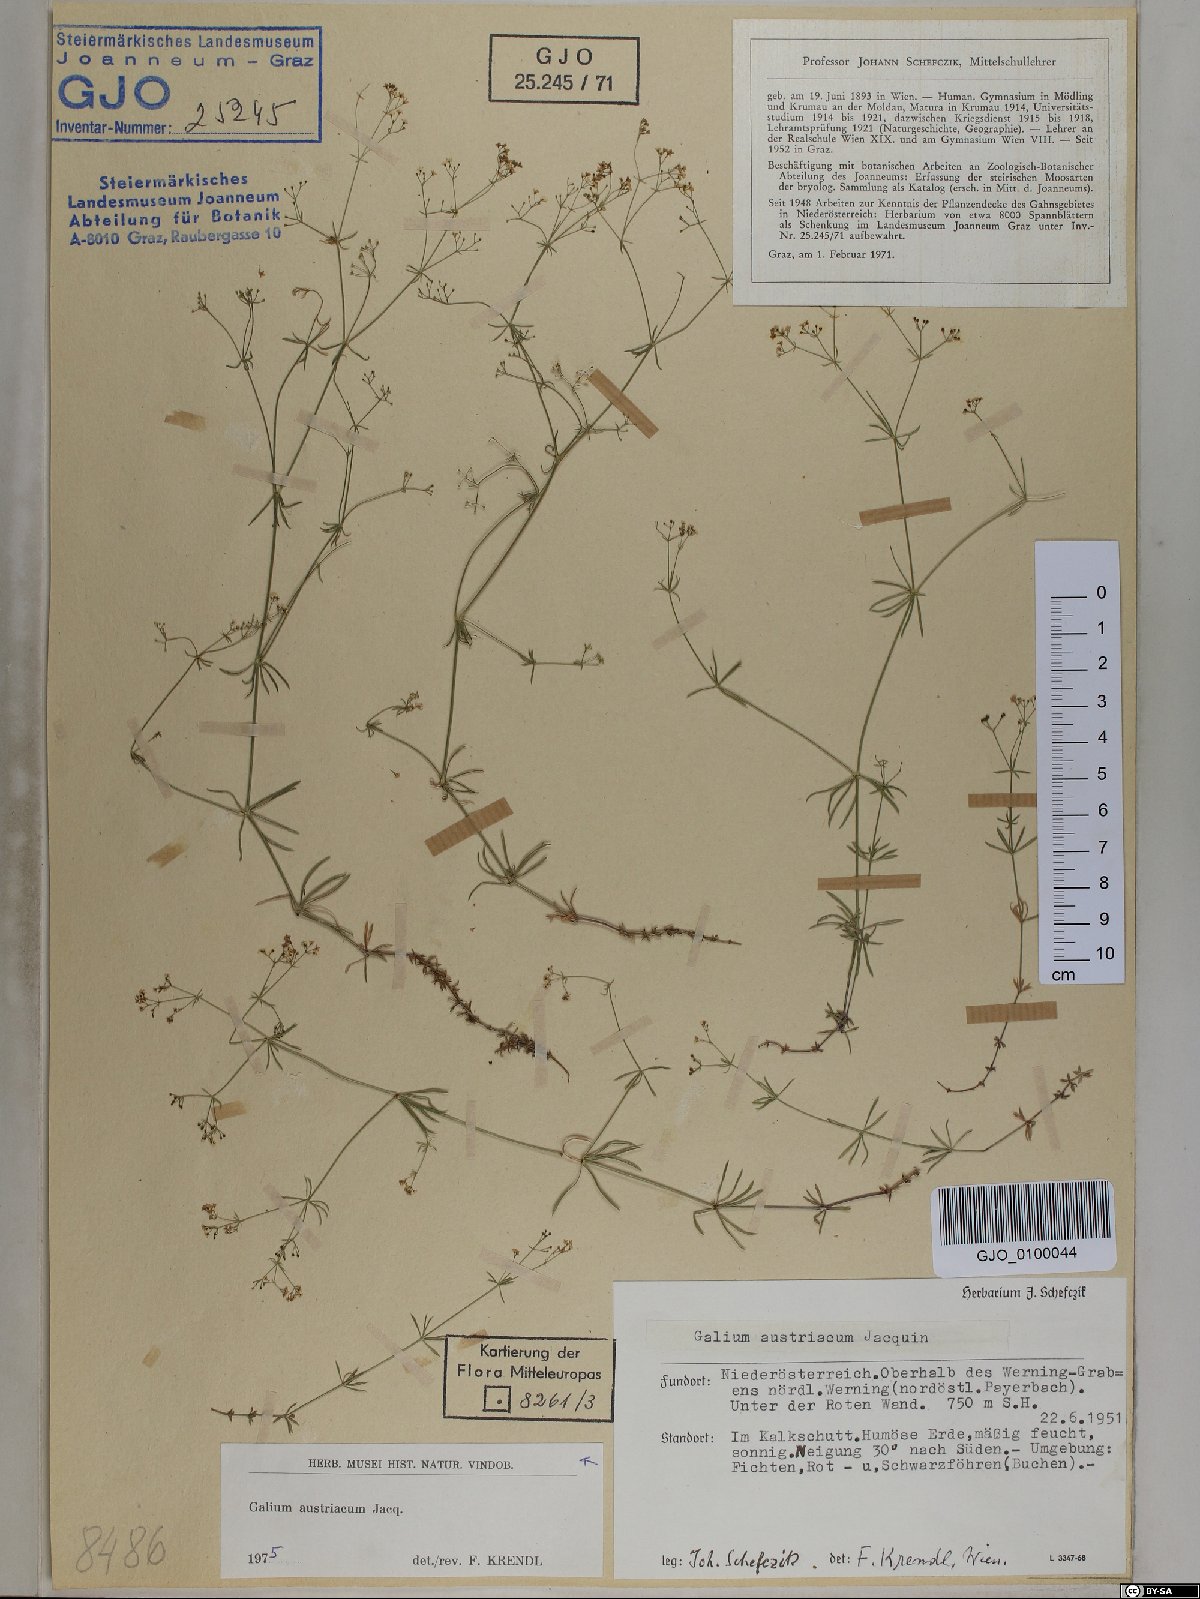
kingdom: Plantae
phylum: Tracheophyta
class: Magnoliopsida
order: Gentianales
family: Rubiaceae
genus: Galium
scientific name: Galium austriacum
